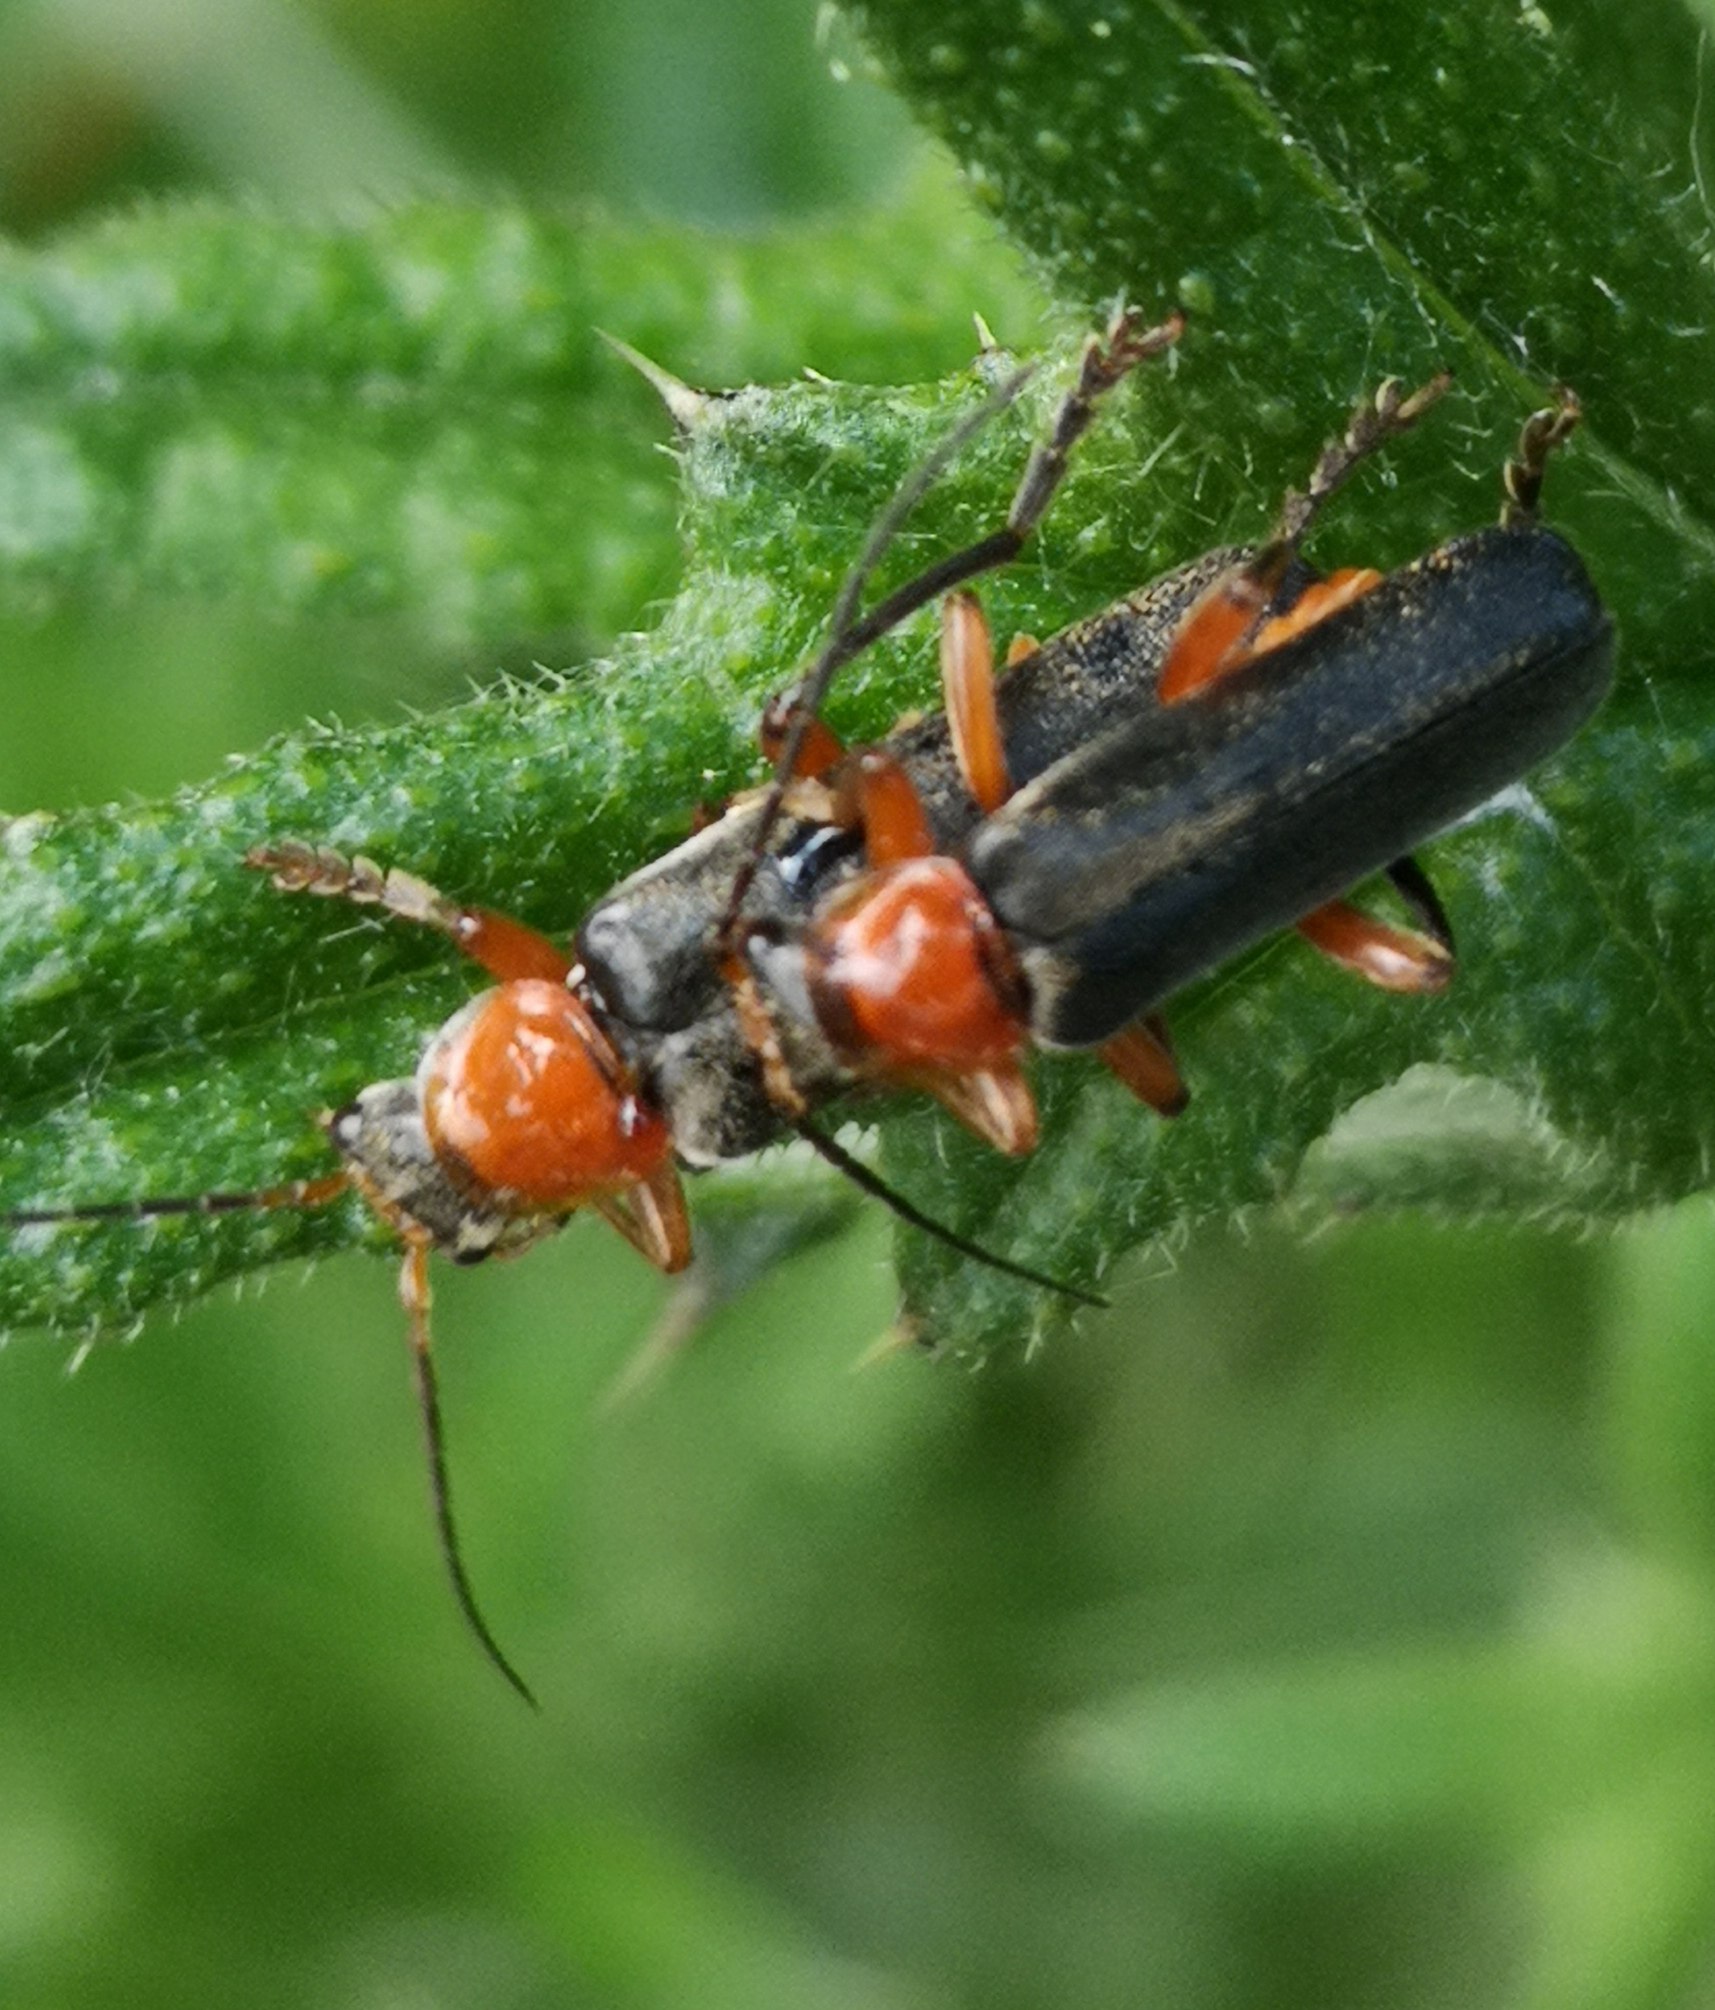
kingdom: Animalia
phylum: Arthropoda
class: Insecta
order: Coleoptera
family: Cantharidae
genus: Cantharis
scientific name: Cantharis pellucida
